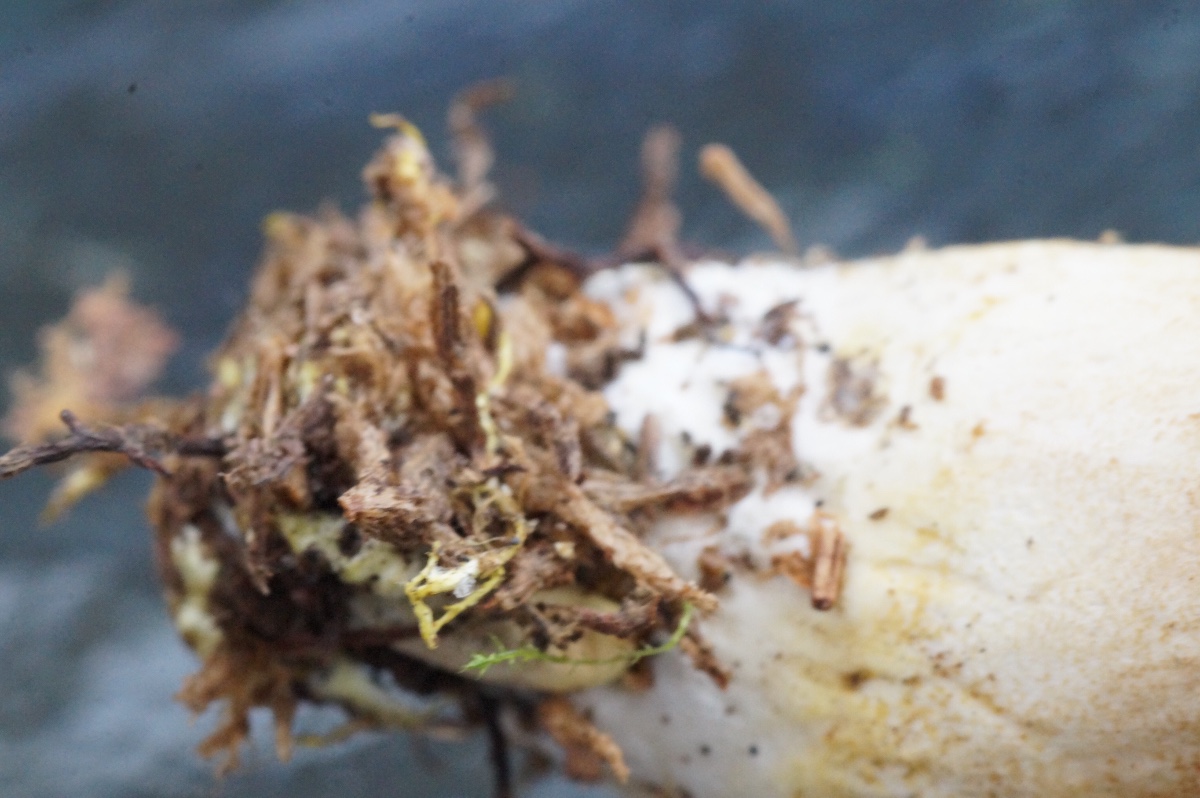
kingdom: Fungi
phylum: Basidiomycota
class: Agaricomycetes
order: Boletales
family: Boletaceae
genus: Xerocomus
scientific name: Xerocomus ferrugineus
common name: vaskeskinds-rørhat
